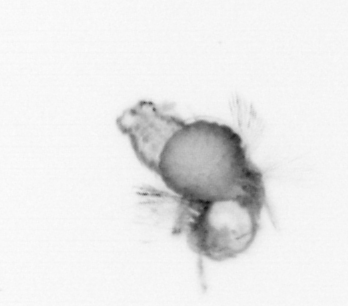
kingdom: Animalia
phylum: Annelida
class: Polychaeta
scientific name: Polychaeta
